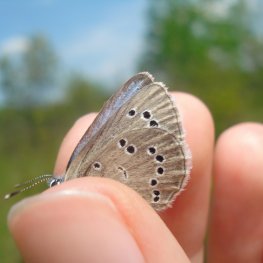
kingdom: Animalia
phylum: Arthropoda
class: Insecta
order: Lepidoptera
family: Lycaenidae
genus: Glaucopsyche
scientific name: Glaucopsyche lygdamus
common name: Silvery Blue
